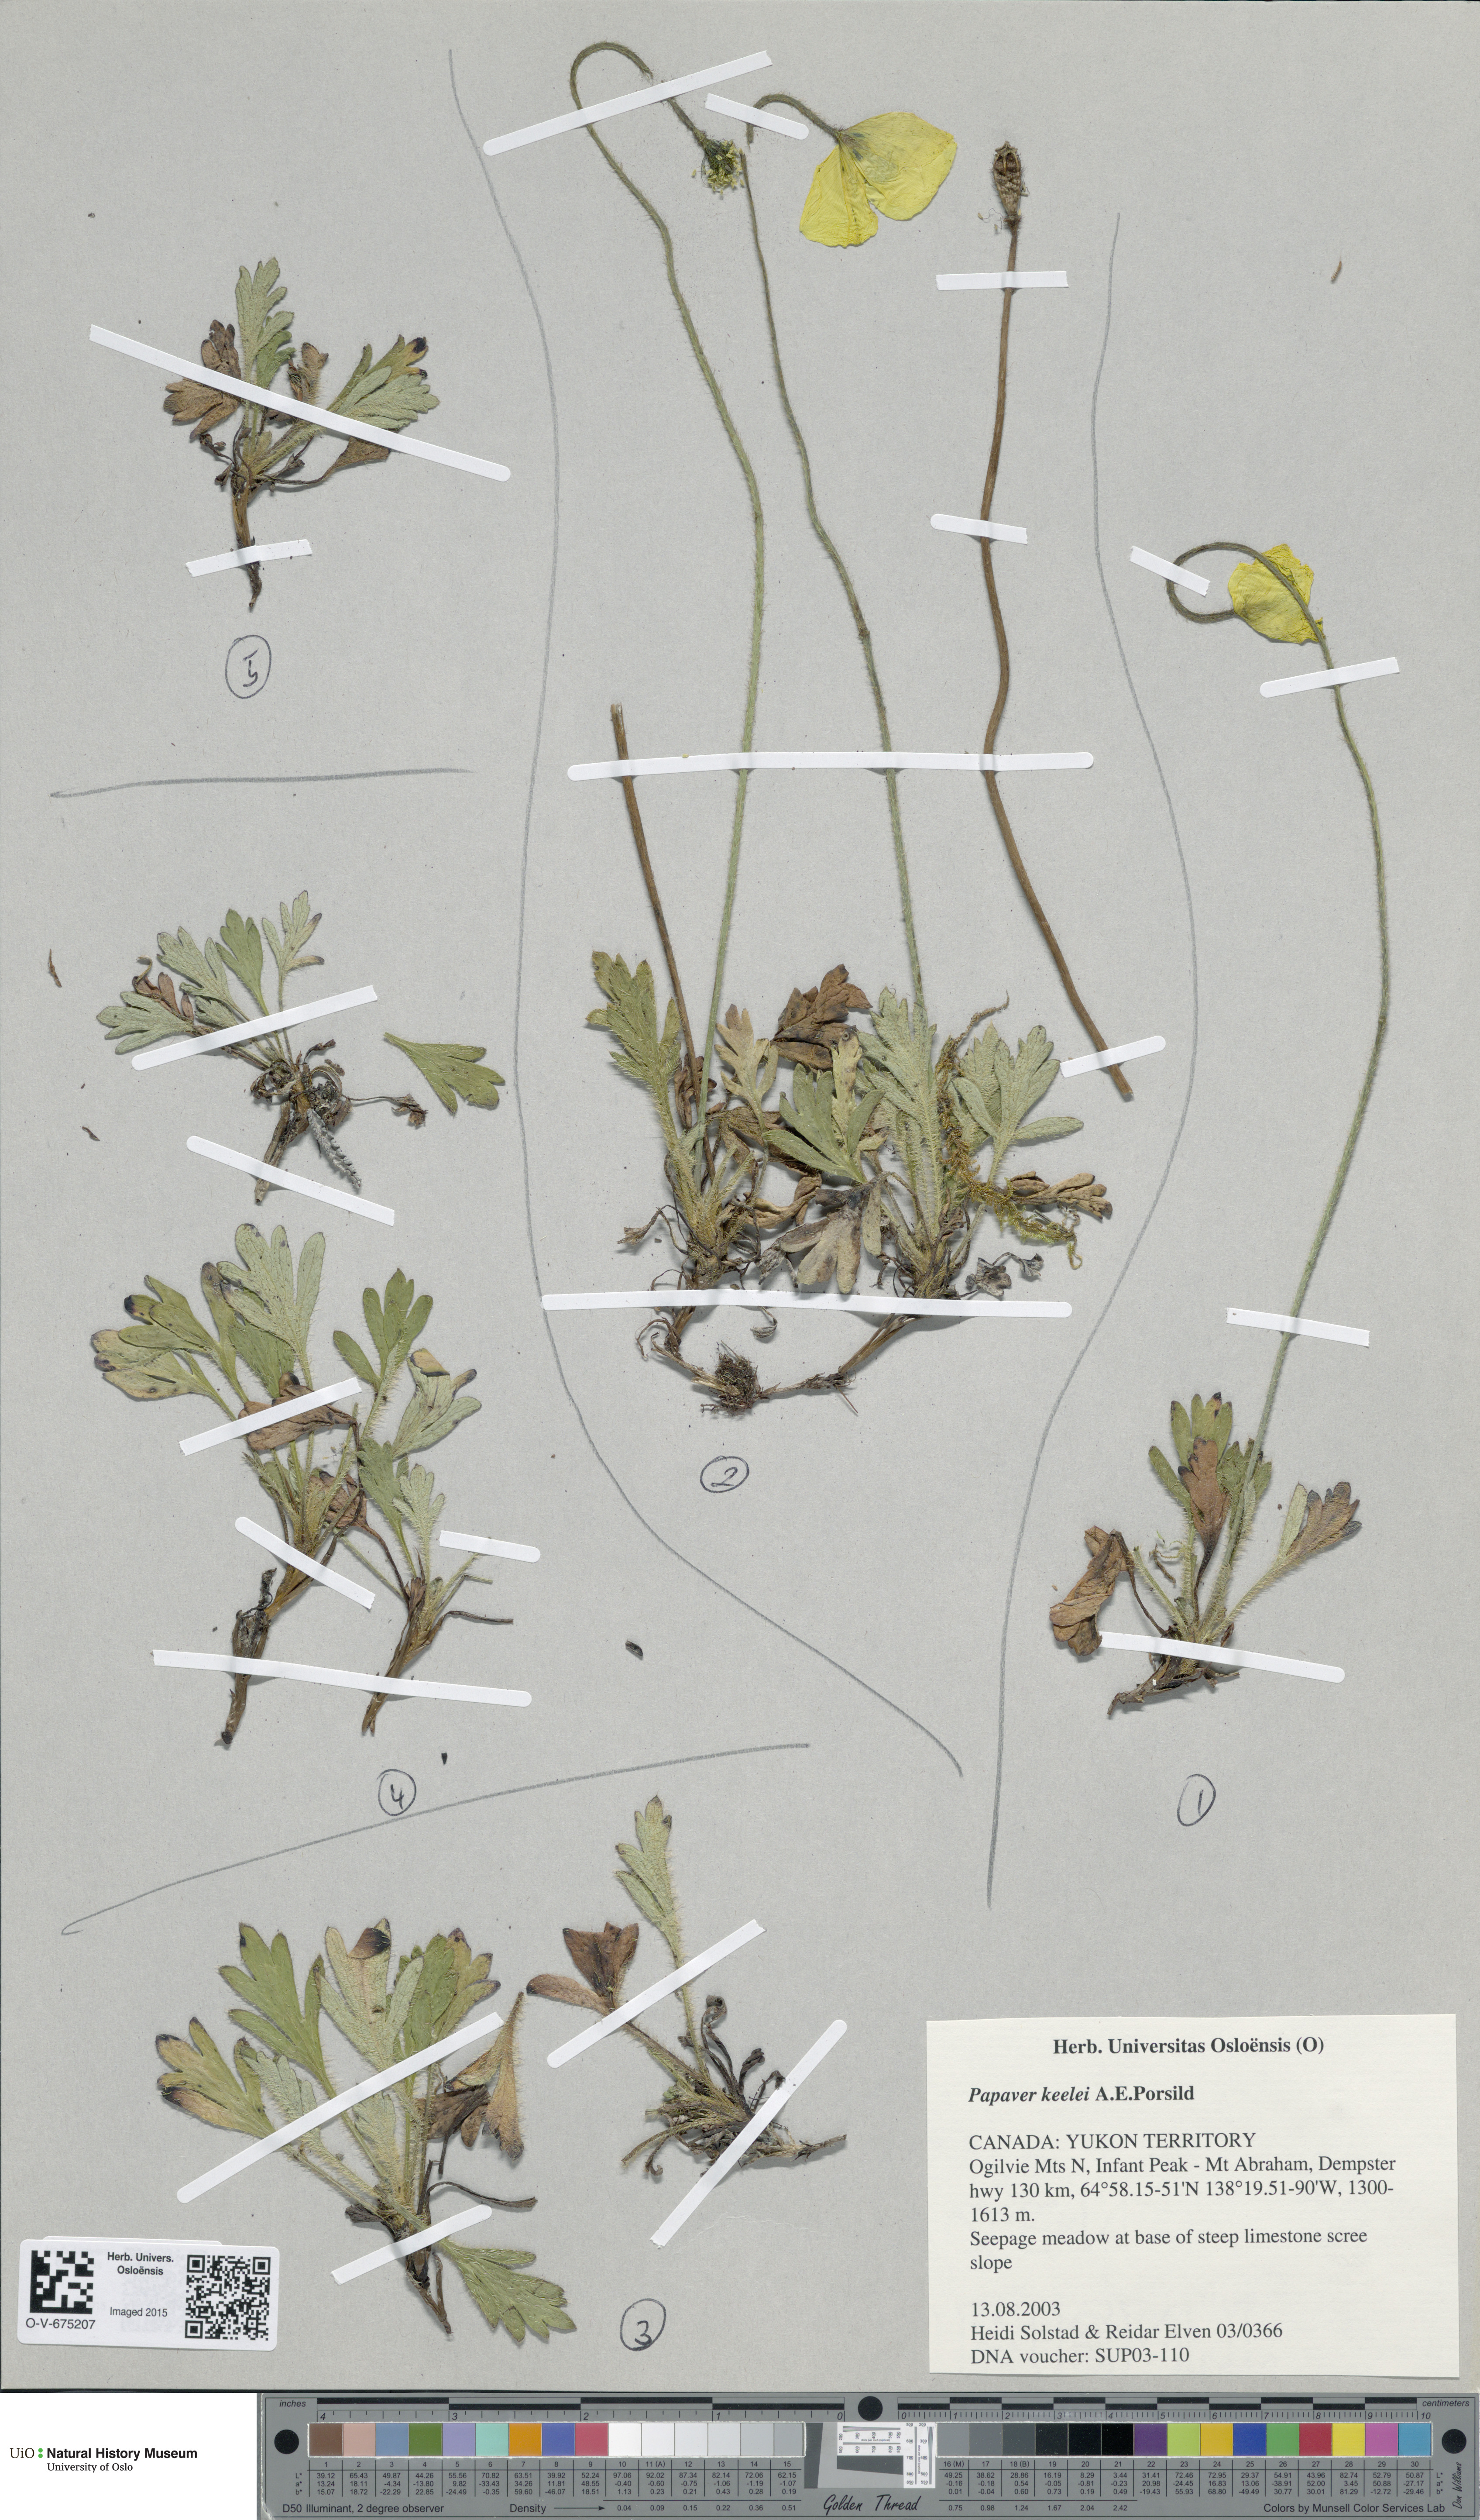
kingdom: Plantae
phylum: Tracheophyta
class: Magnoliopsida
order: Ranunculales
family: Papaveraceae
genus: Papaver
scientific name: Papaver macounii
